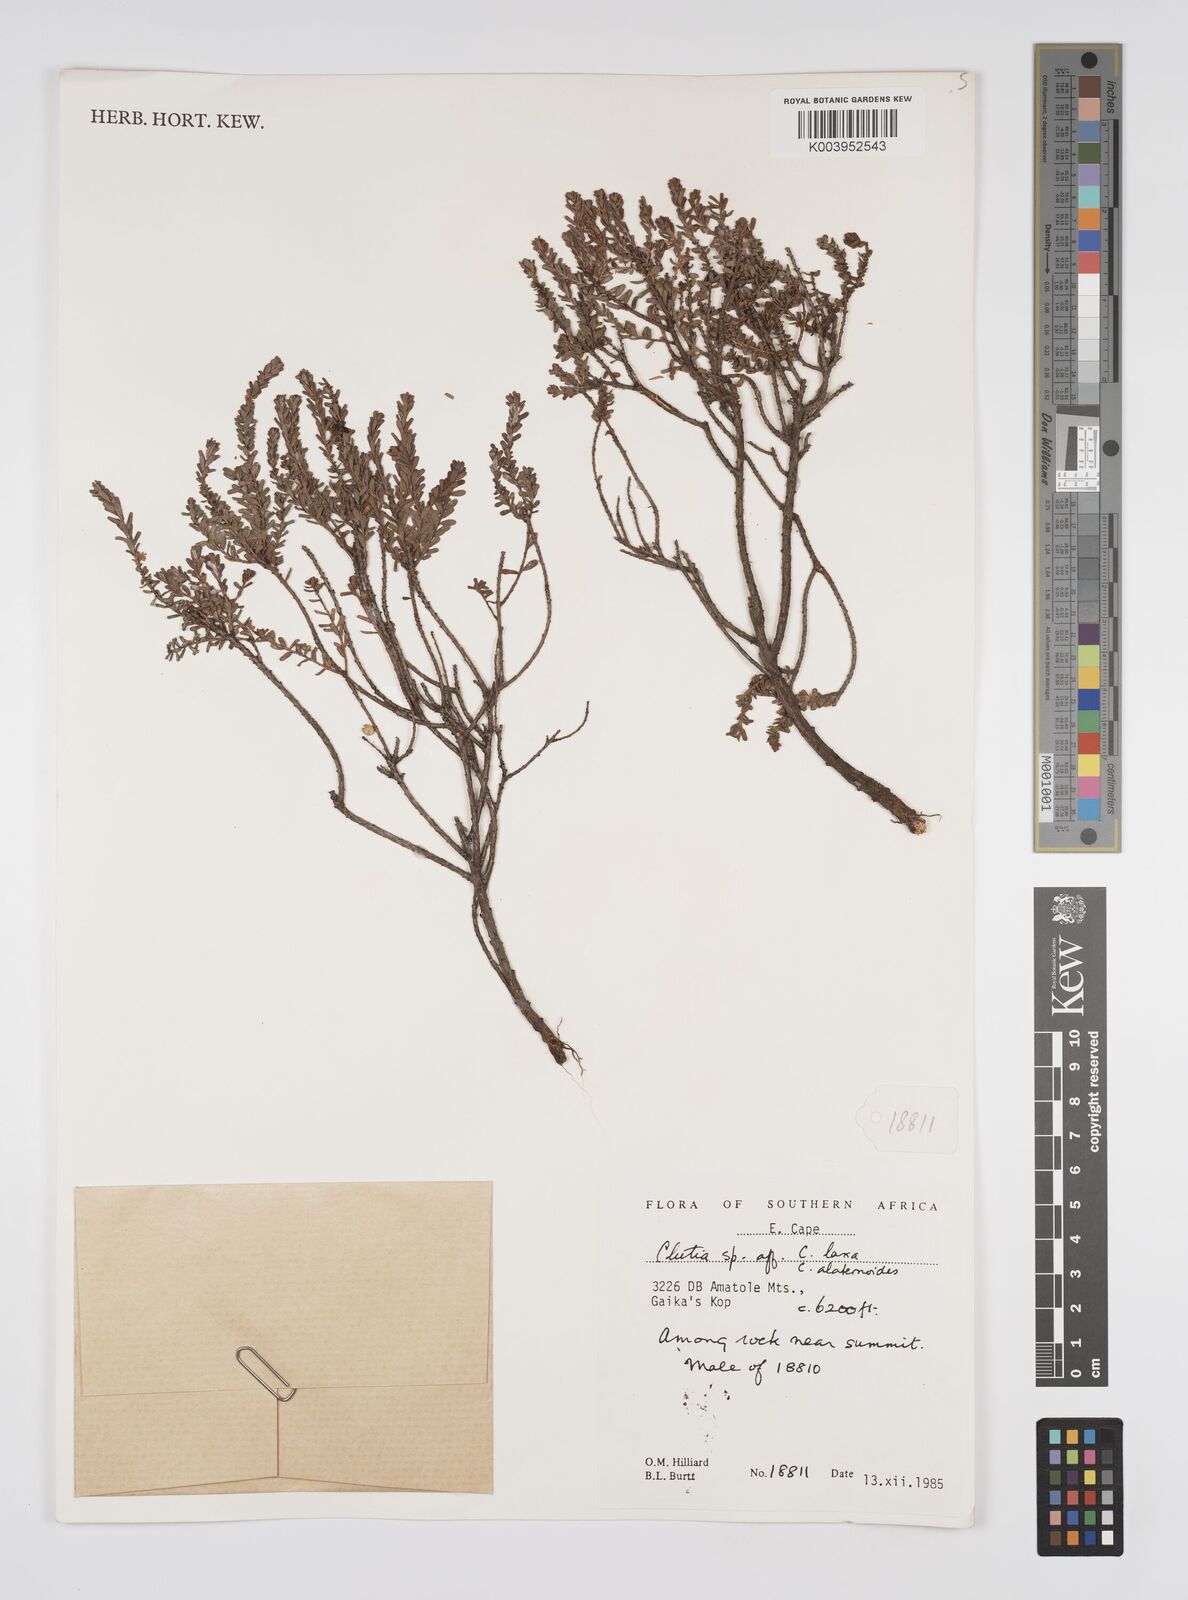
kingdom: Plantae
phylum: Tracheophyta
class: Magnoliopsida
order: Malpighiales
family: Peraceae
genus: Clutia
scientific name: Clutia
